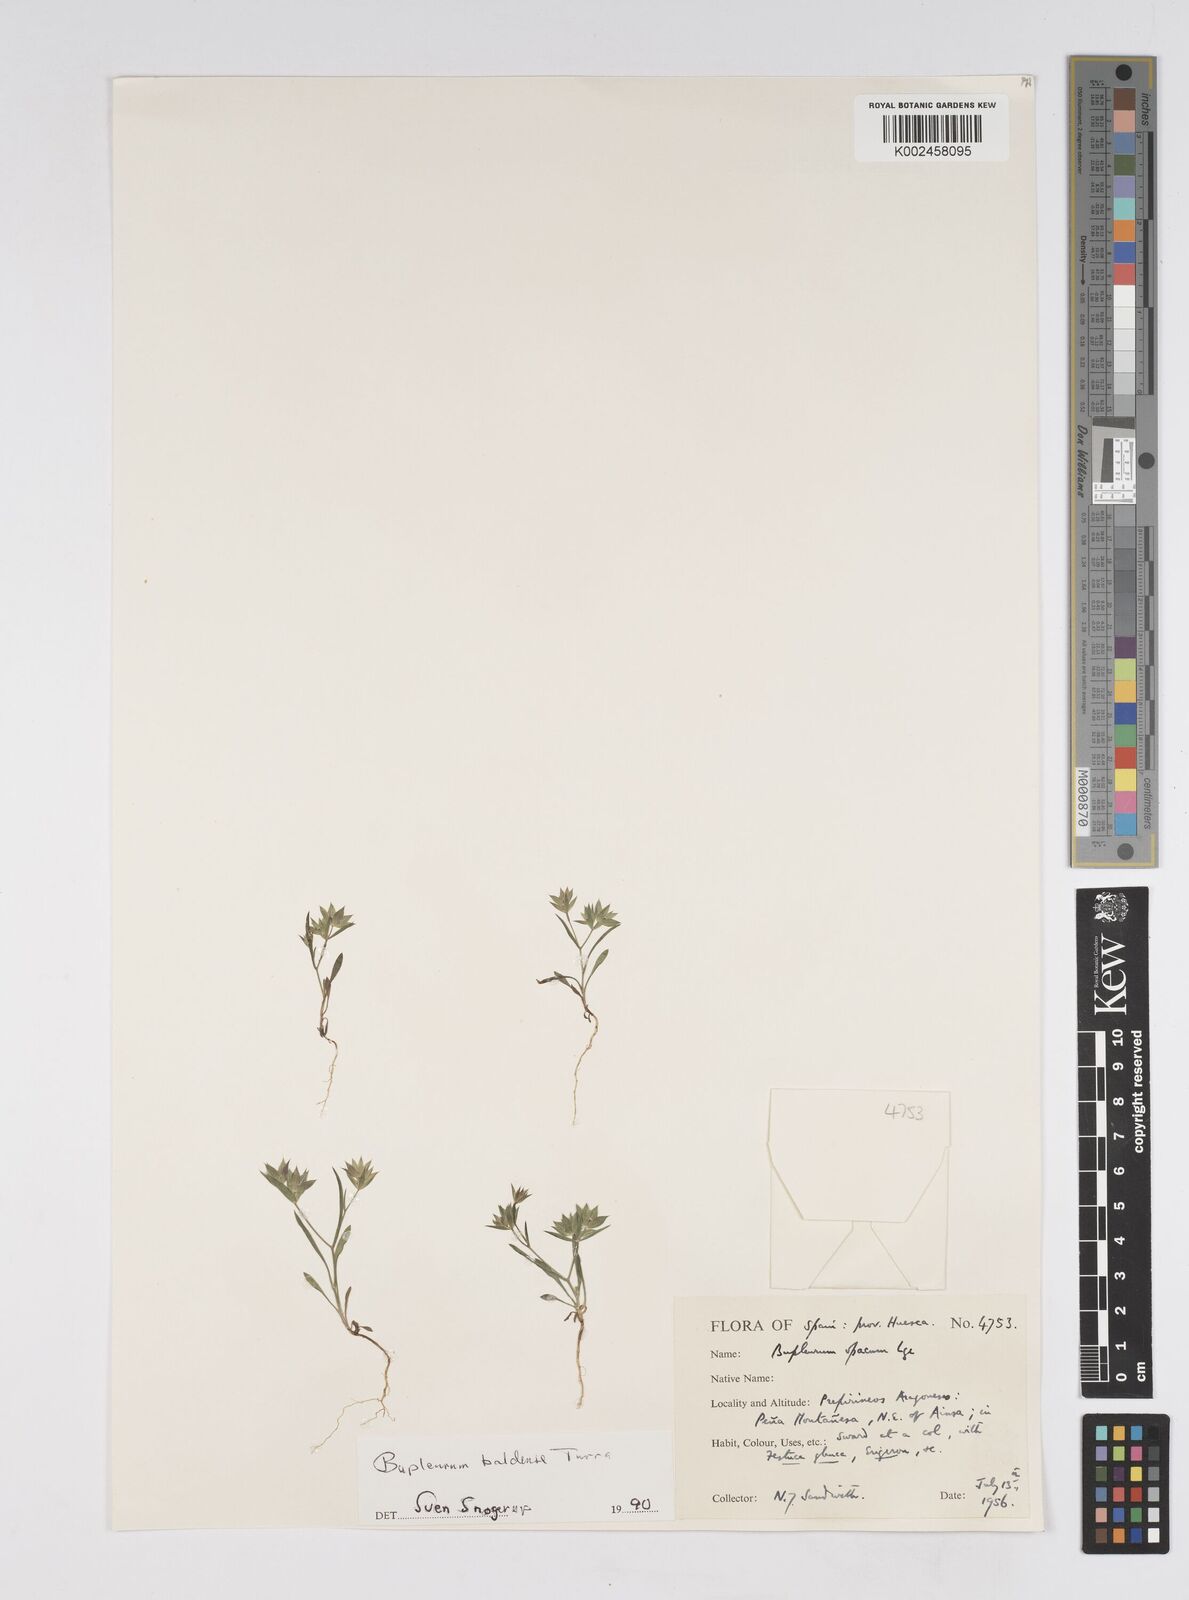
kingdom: Plantae
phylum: Tracheophyta
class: Magnoliopsida
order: Apiales
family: Apiaceae
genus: Bupleurum
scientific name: Bupleurum baldense
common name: Small hare's-ear
